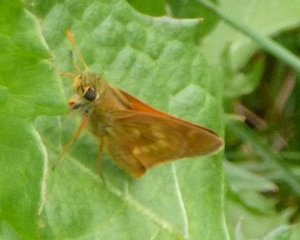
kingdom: Animalia
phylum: Arthropoda
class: Insecta
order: Lepidoptera
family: Hesperiidae
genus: Hesperia
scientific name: Hesperia sassacus
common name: Sassacus Skipper
